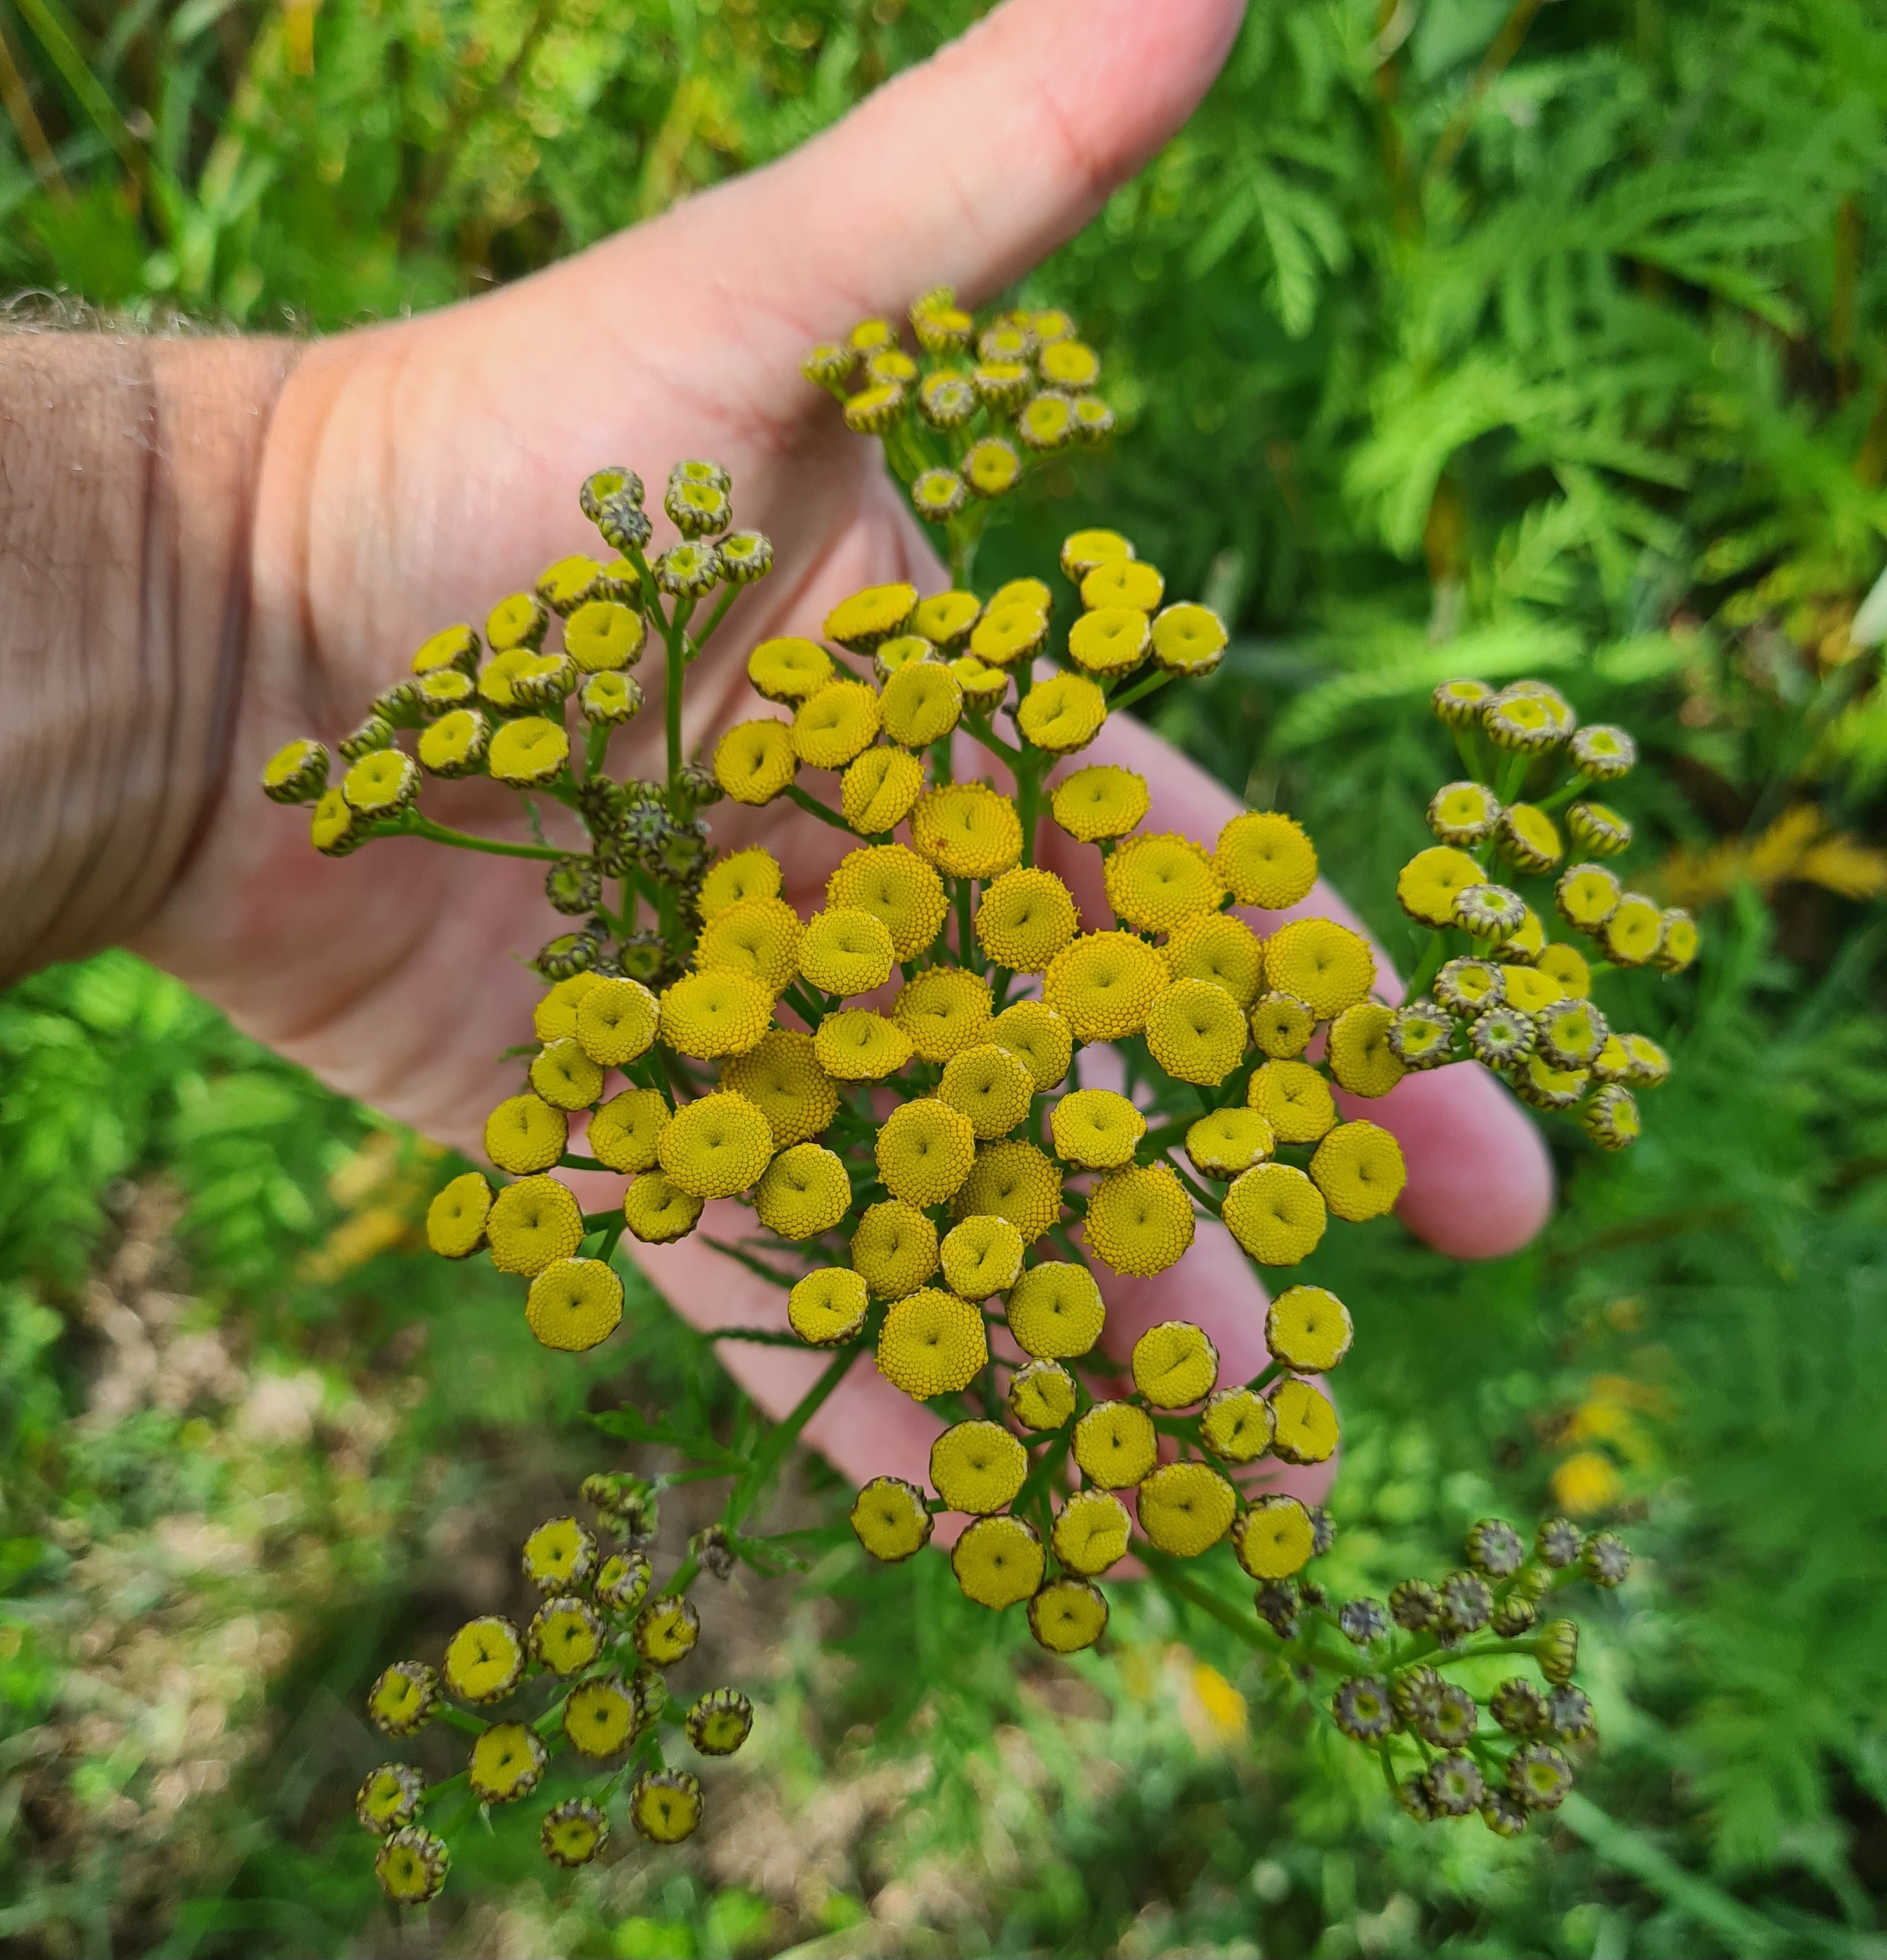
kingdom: Plantae
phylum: Tracheophyta
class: Magnoliopsida
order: Asterales
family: Asteraceae
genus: Tanacetum
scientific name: Tanacetum vulgare
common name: Rejnfan
